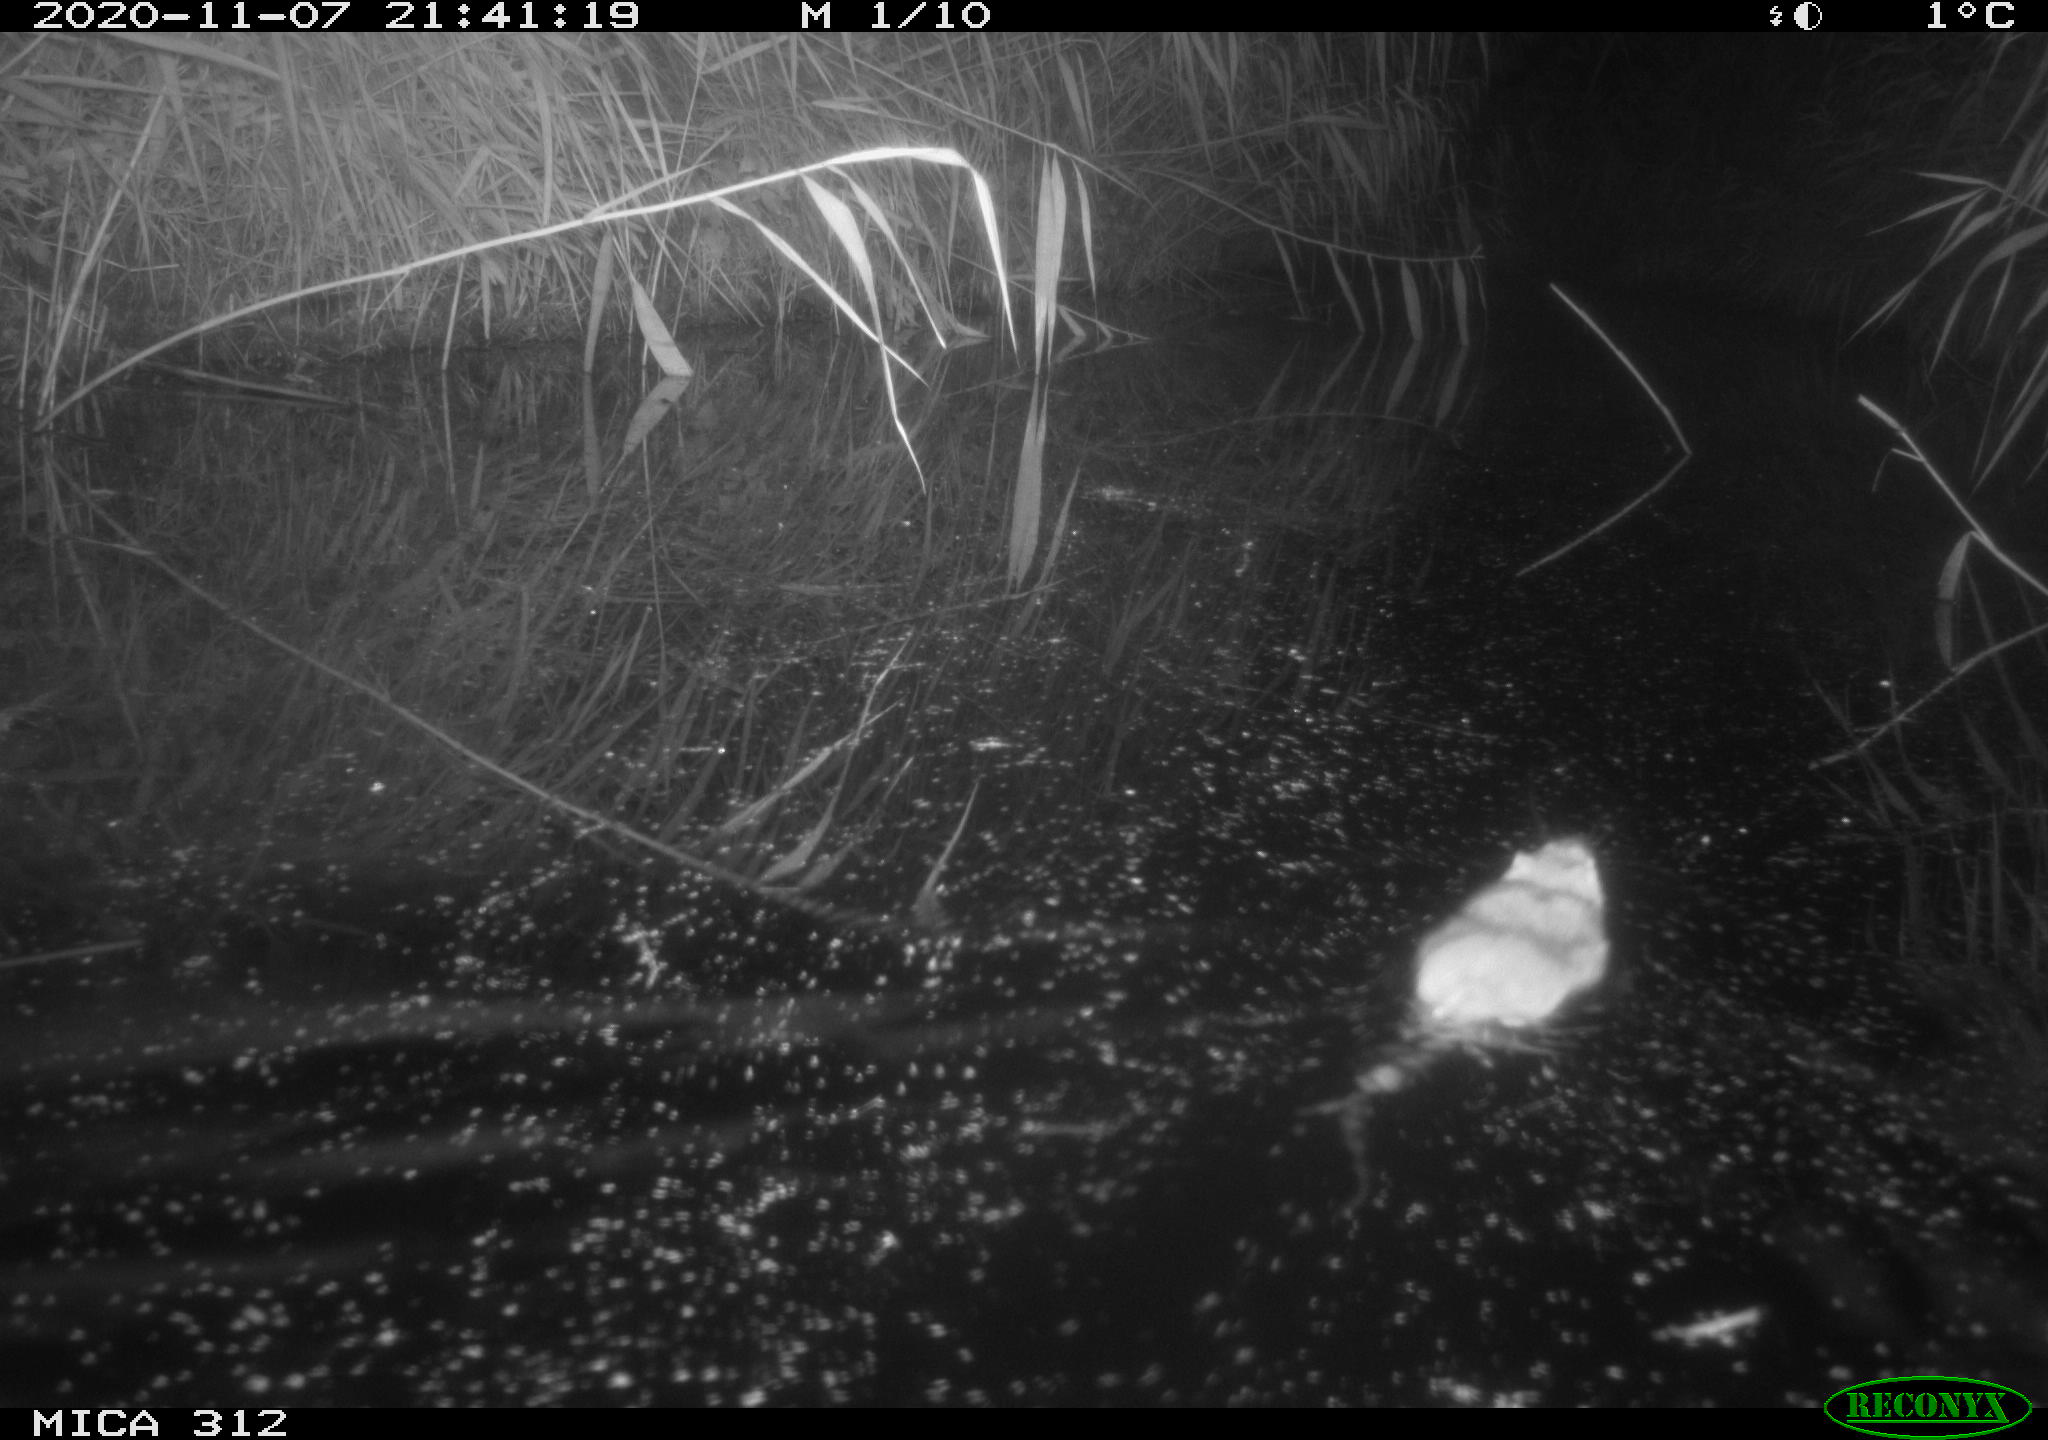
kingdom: Animalia
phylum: Chordata
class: Mammalia
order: Rodentia
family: Muridae
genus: Rattus
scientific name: Rattus norvegicus
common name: Brown rat
